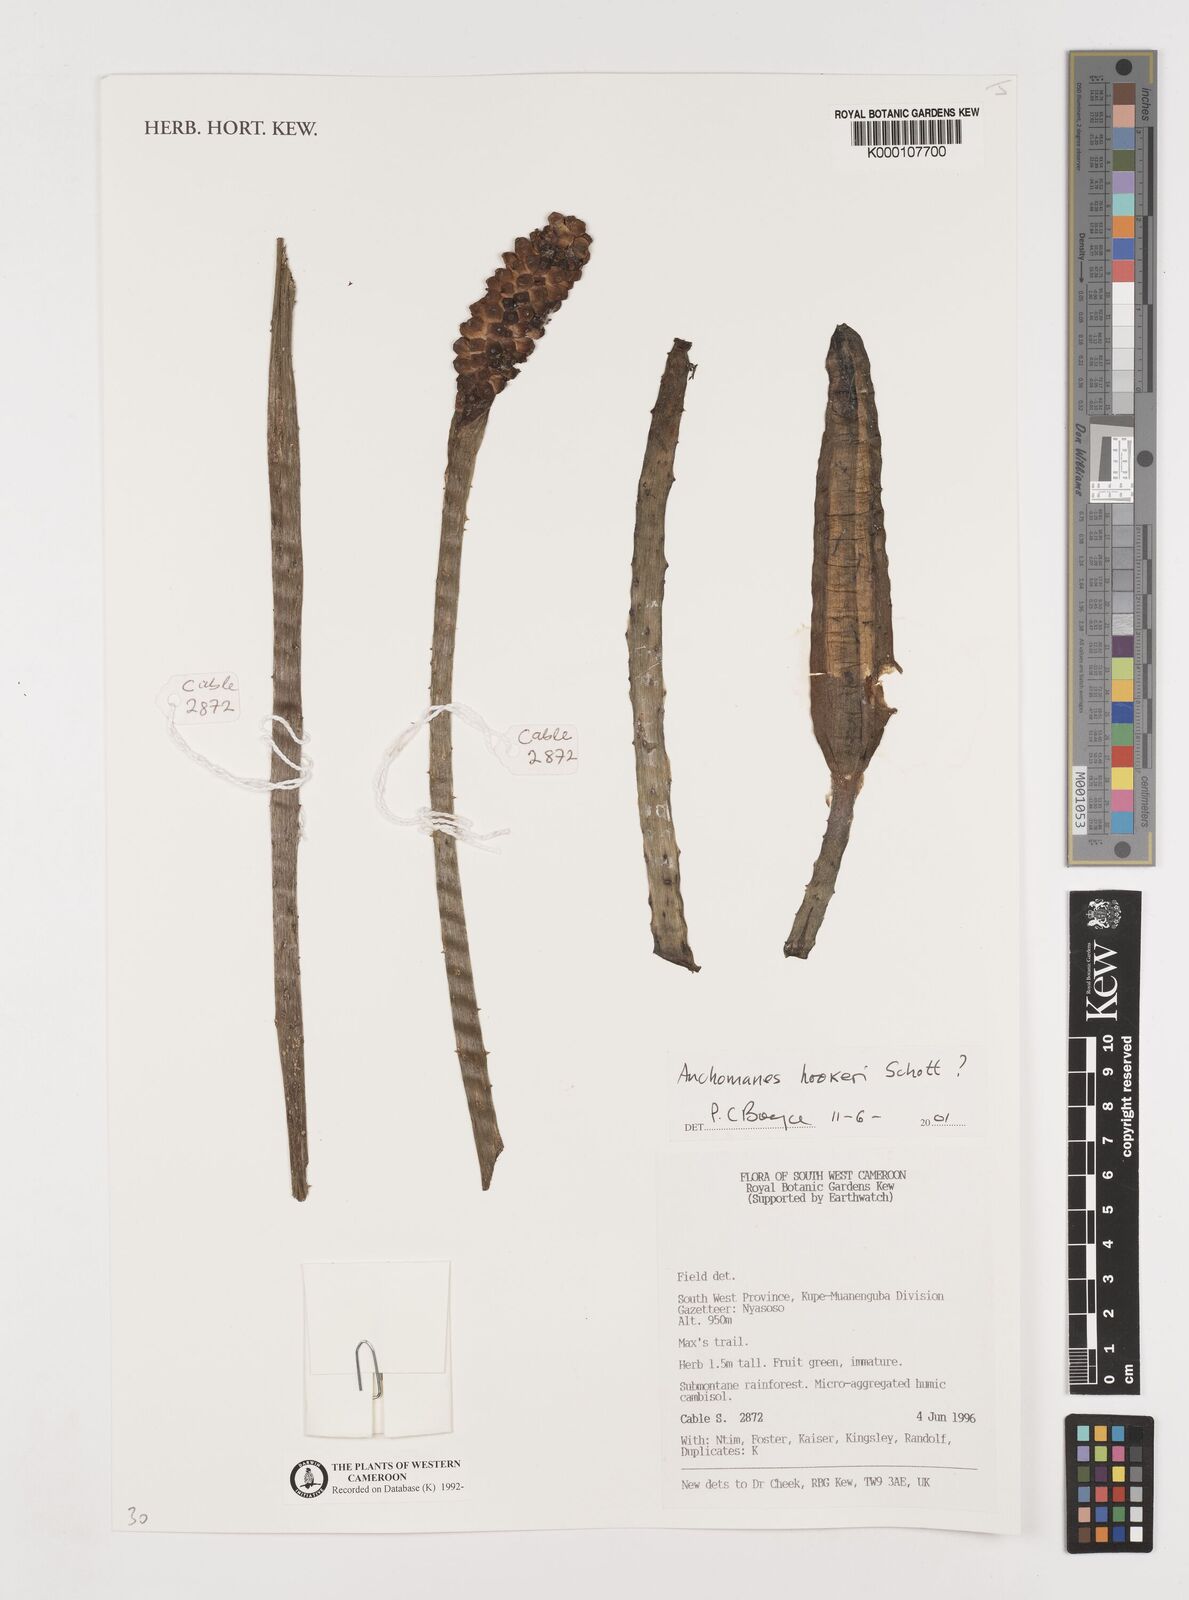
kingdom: Plantae
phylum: Tracheophyta
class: Liliopsida
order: Alismatales
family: Araceae
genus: Anchomanes
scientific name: Anchomanes difformis
